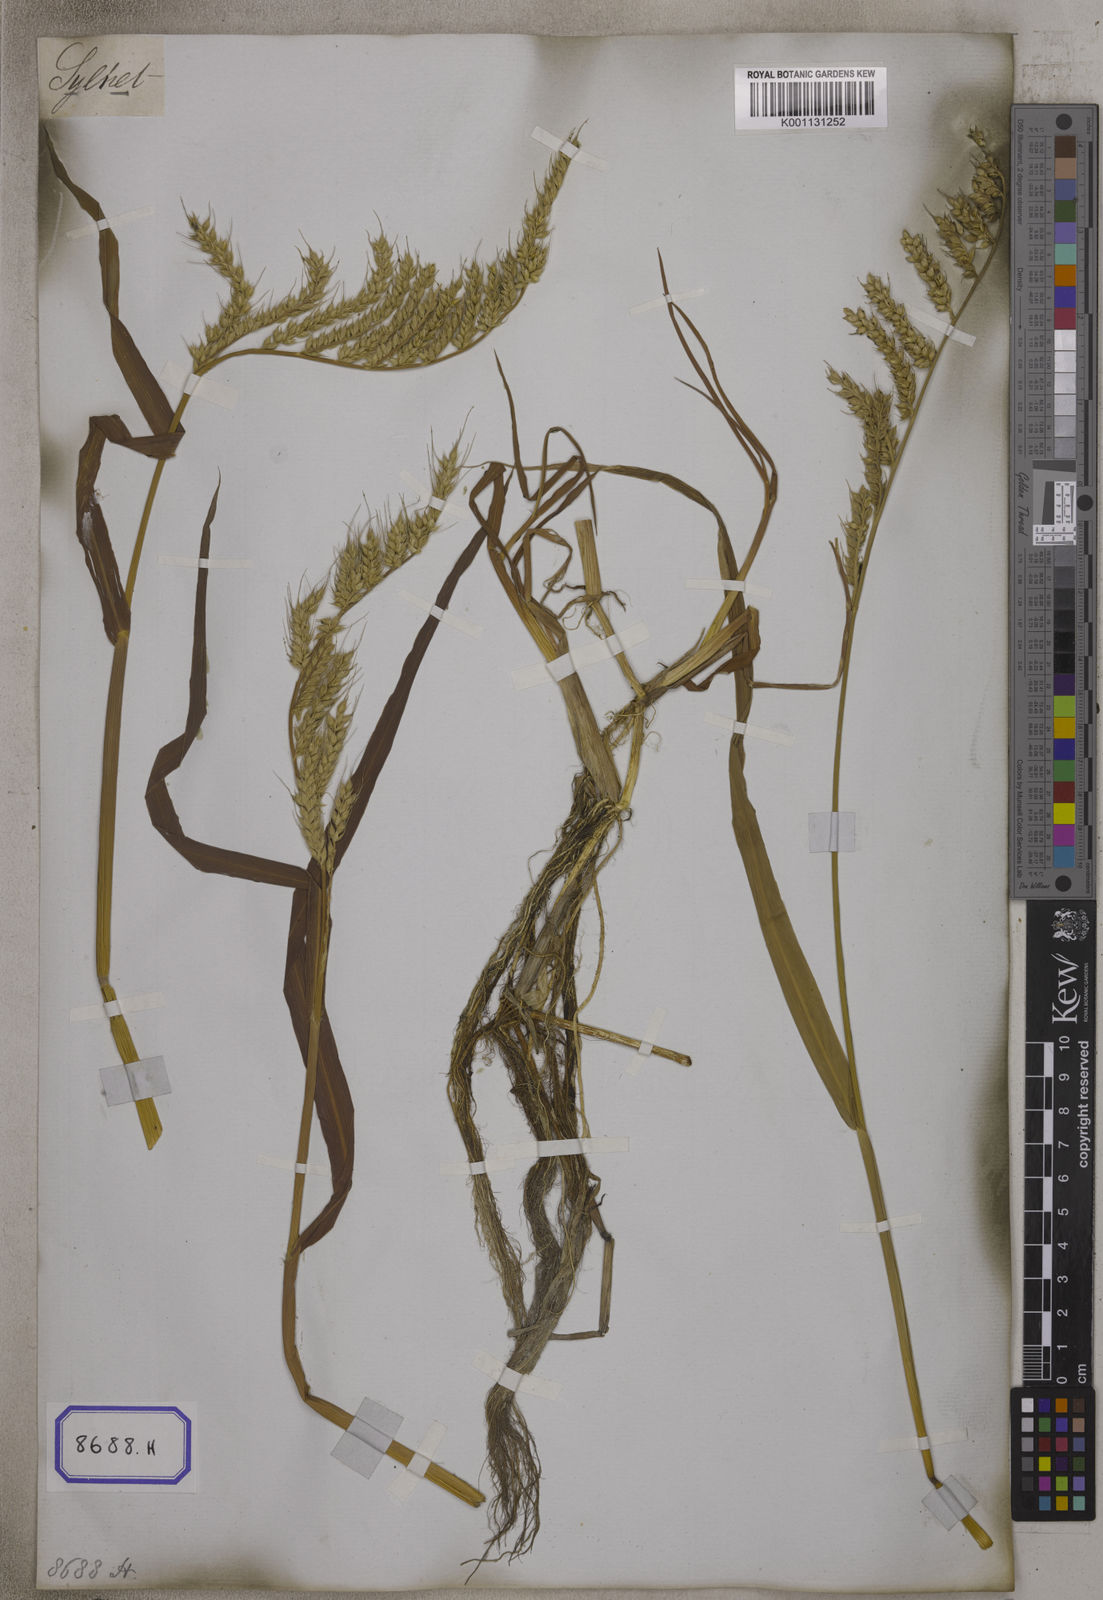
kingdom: Plantae
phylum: Tracheophyta
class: Liliopsida
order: Poales
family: Poaceae
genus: Echinochloa
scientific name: Echinochloa stagnina
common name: Burgu grass
